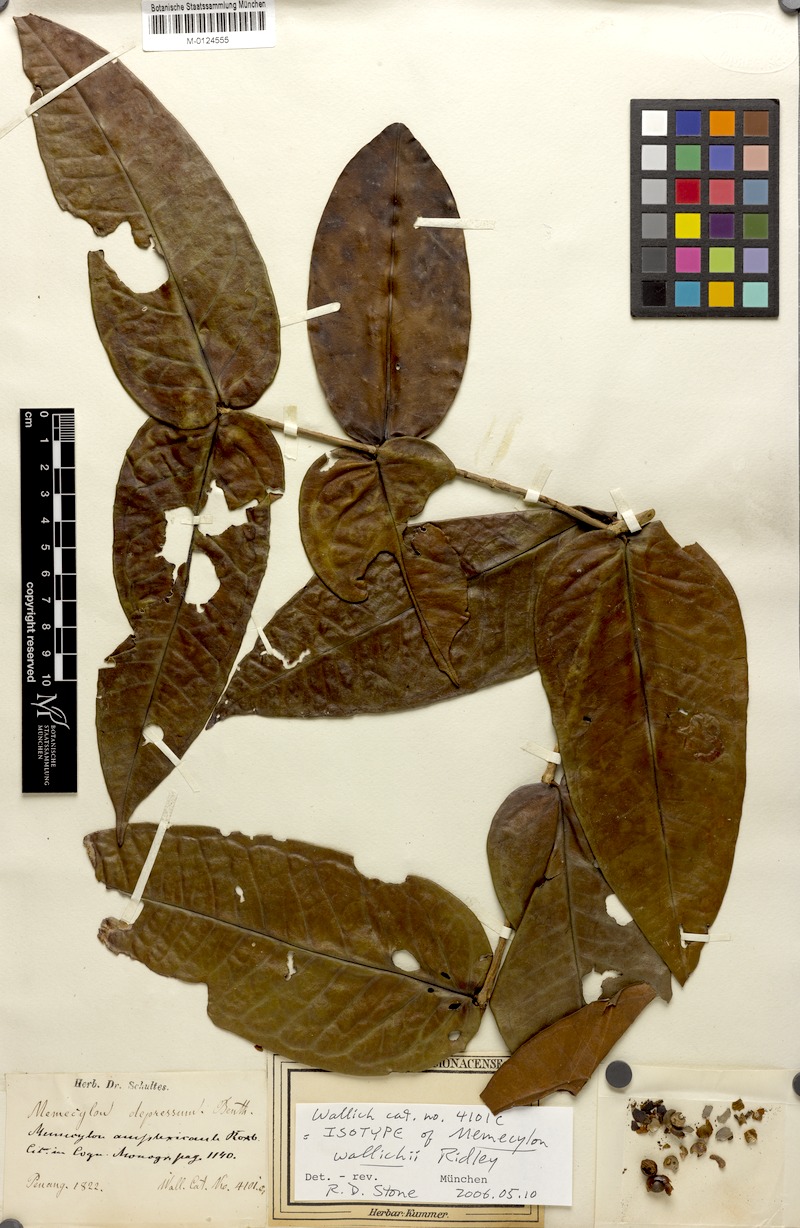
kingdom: Plantae
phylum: Tracheophyta
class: Magnoliopsida
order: Myrtales
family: Melastomataceae
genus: Memecylon
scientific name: Memecylon wallichii
